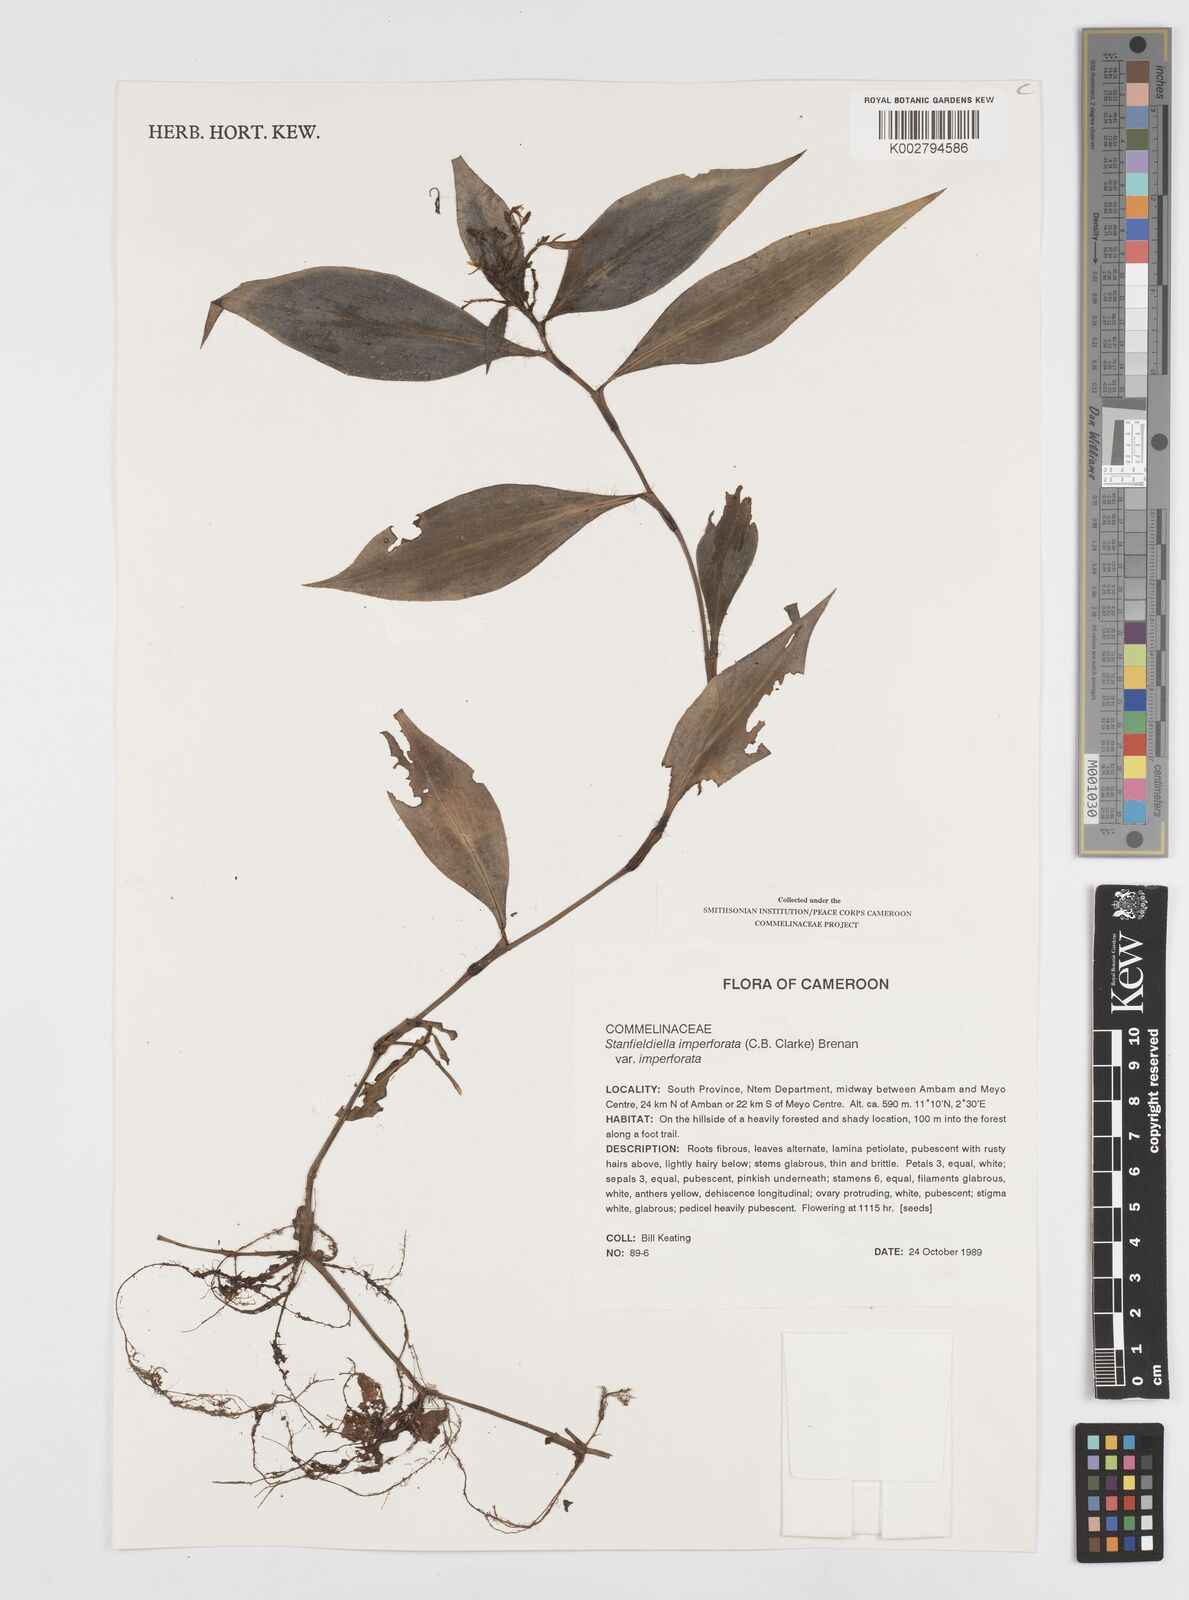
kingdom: Plantae
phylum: Tracheophyta
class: Liliopsida
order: Commelinales
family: Commelinaceae
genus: Stanfieldiella
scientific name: Stanfieldiella imperforata
